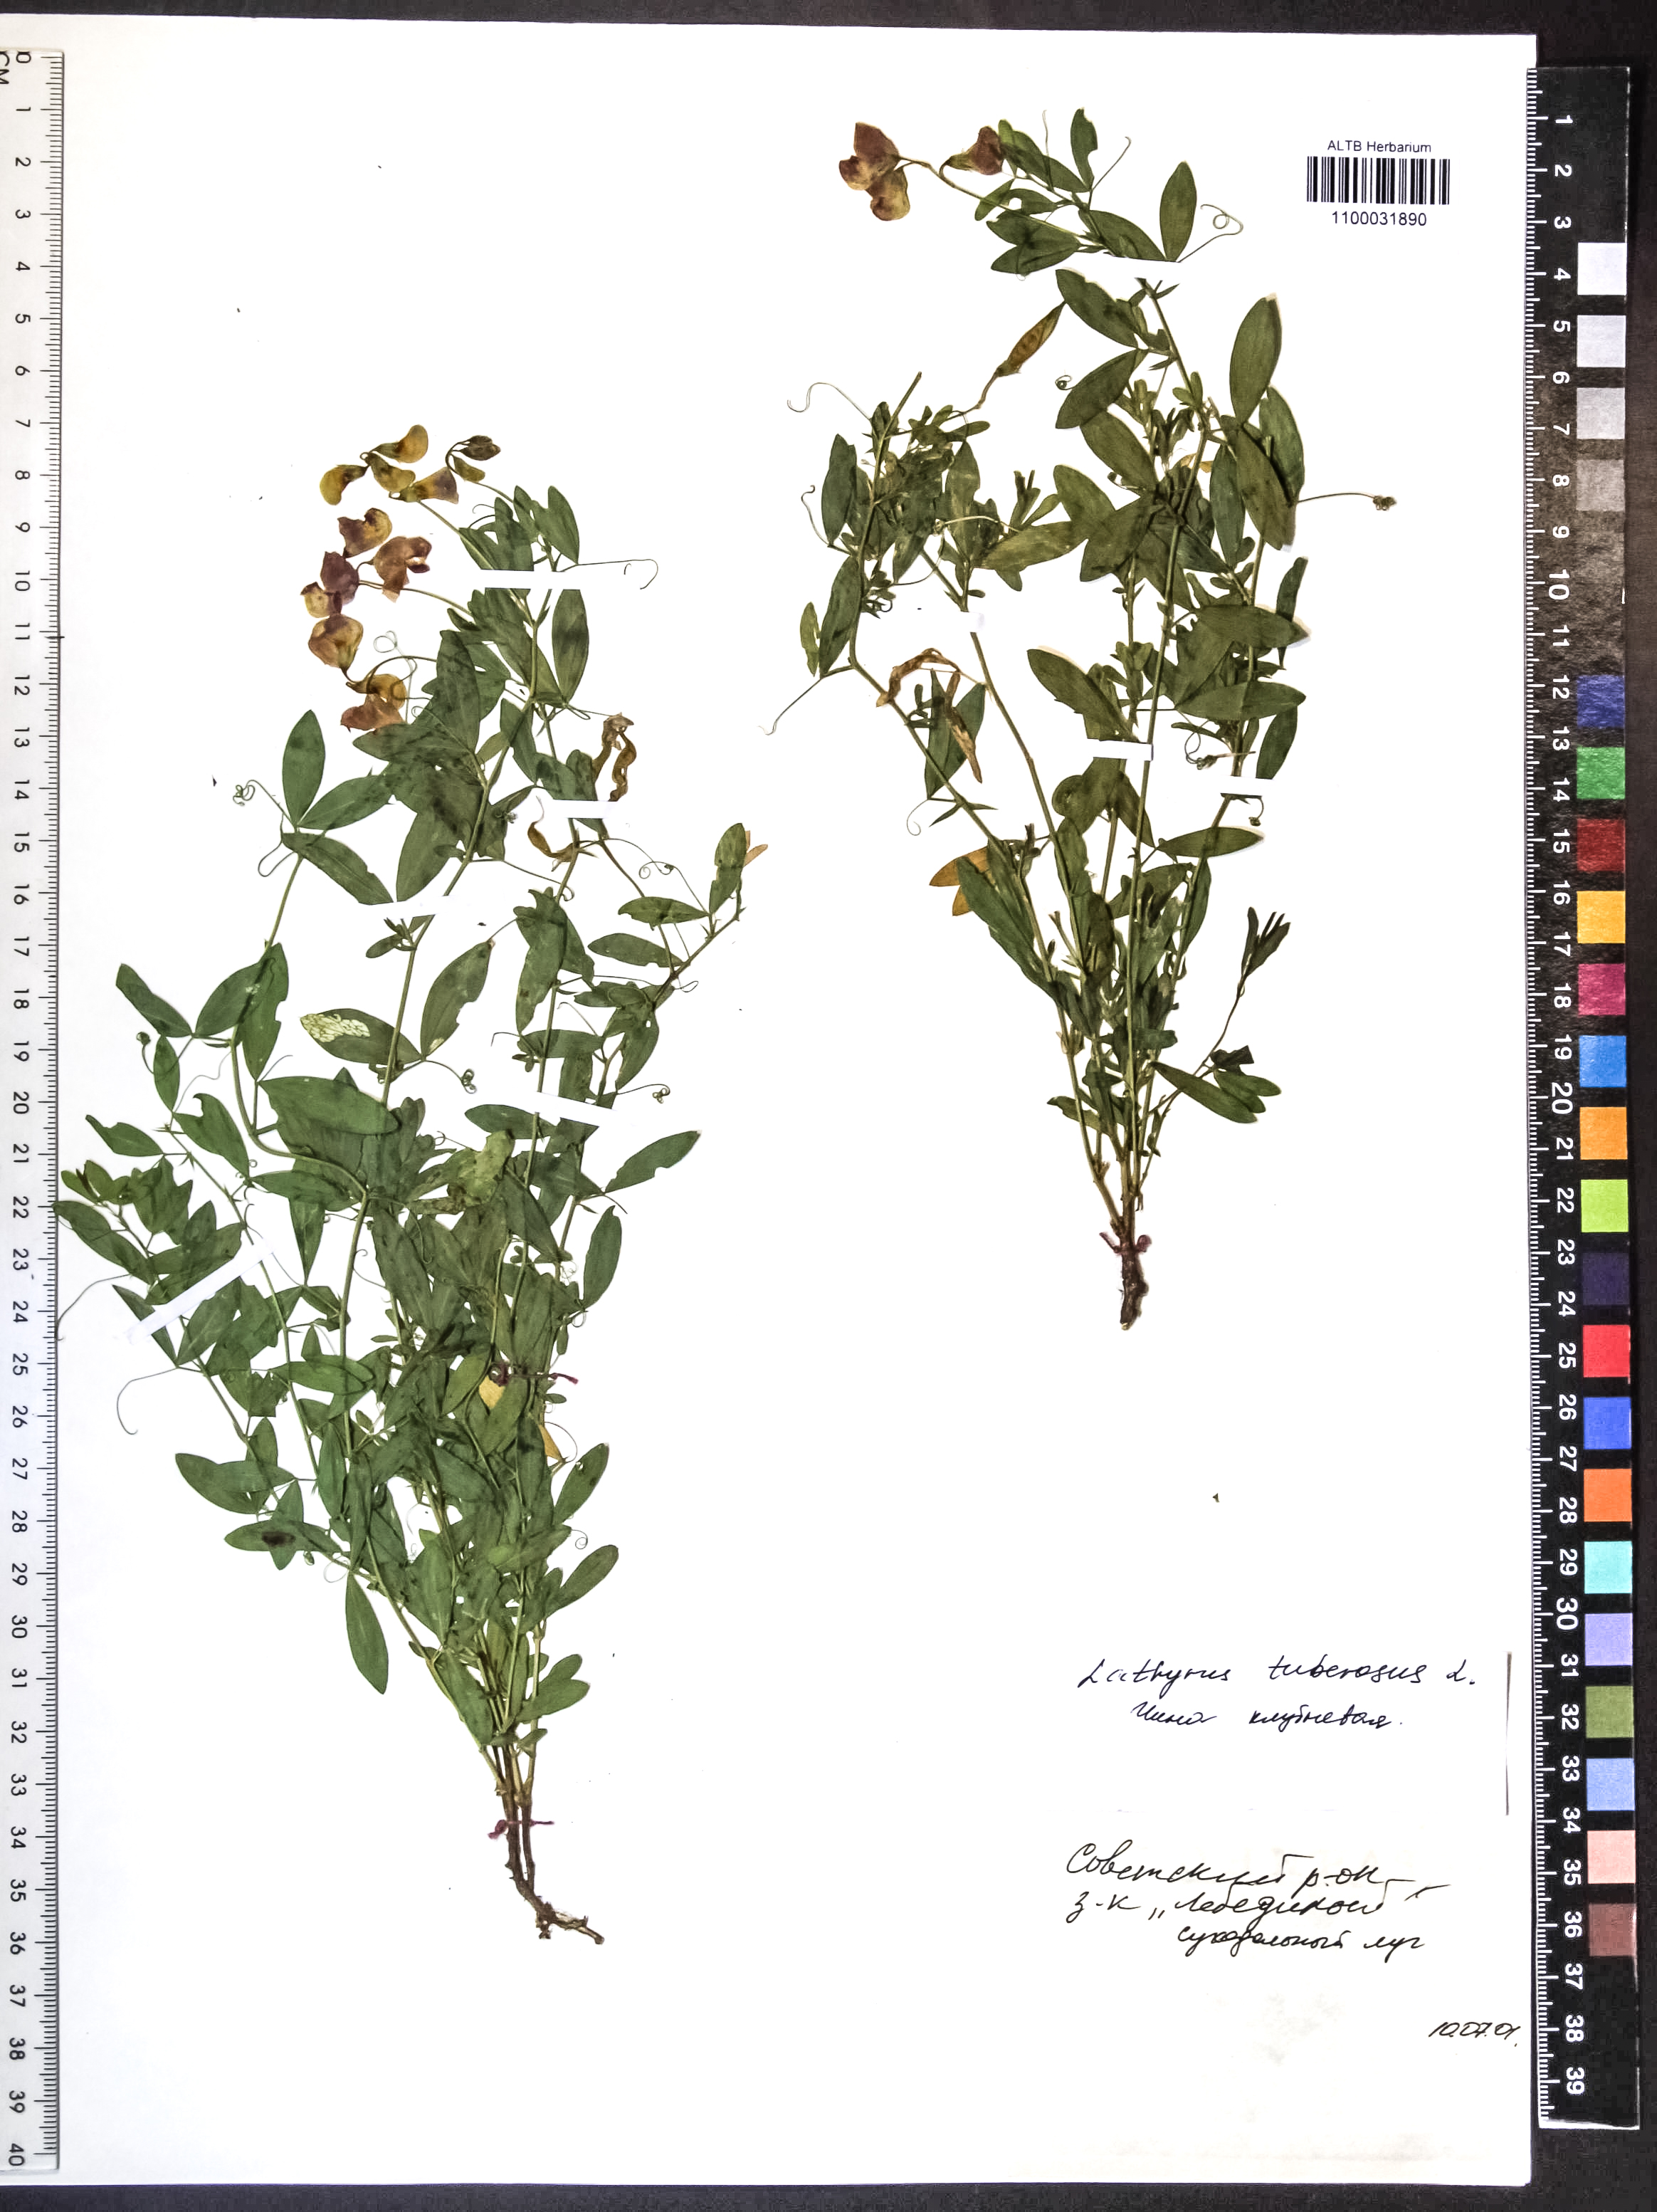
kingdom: Plantae
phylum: Tracheophyta
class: Magnoliopsida
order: Fabales
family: Fabaceae
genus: Lathyrus
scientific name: Lathyrus tuberosus
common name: Tuberous pea
